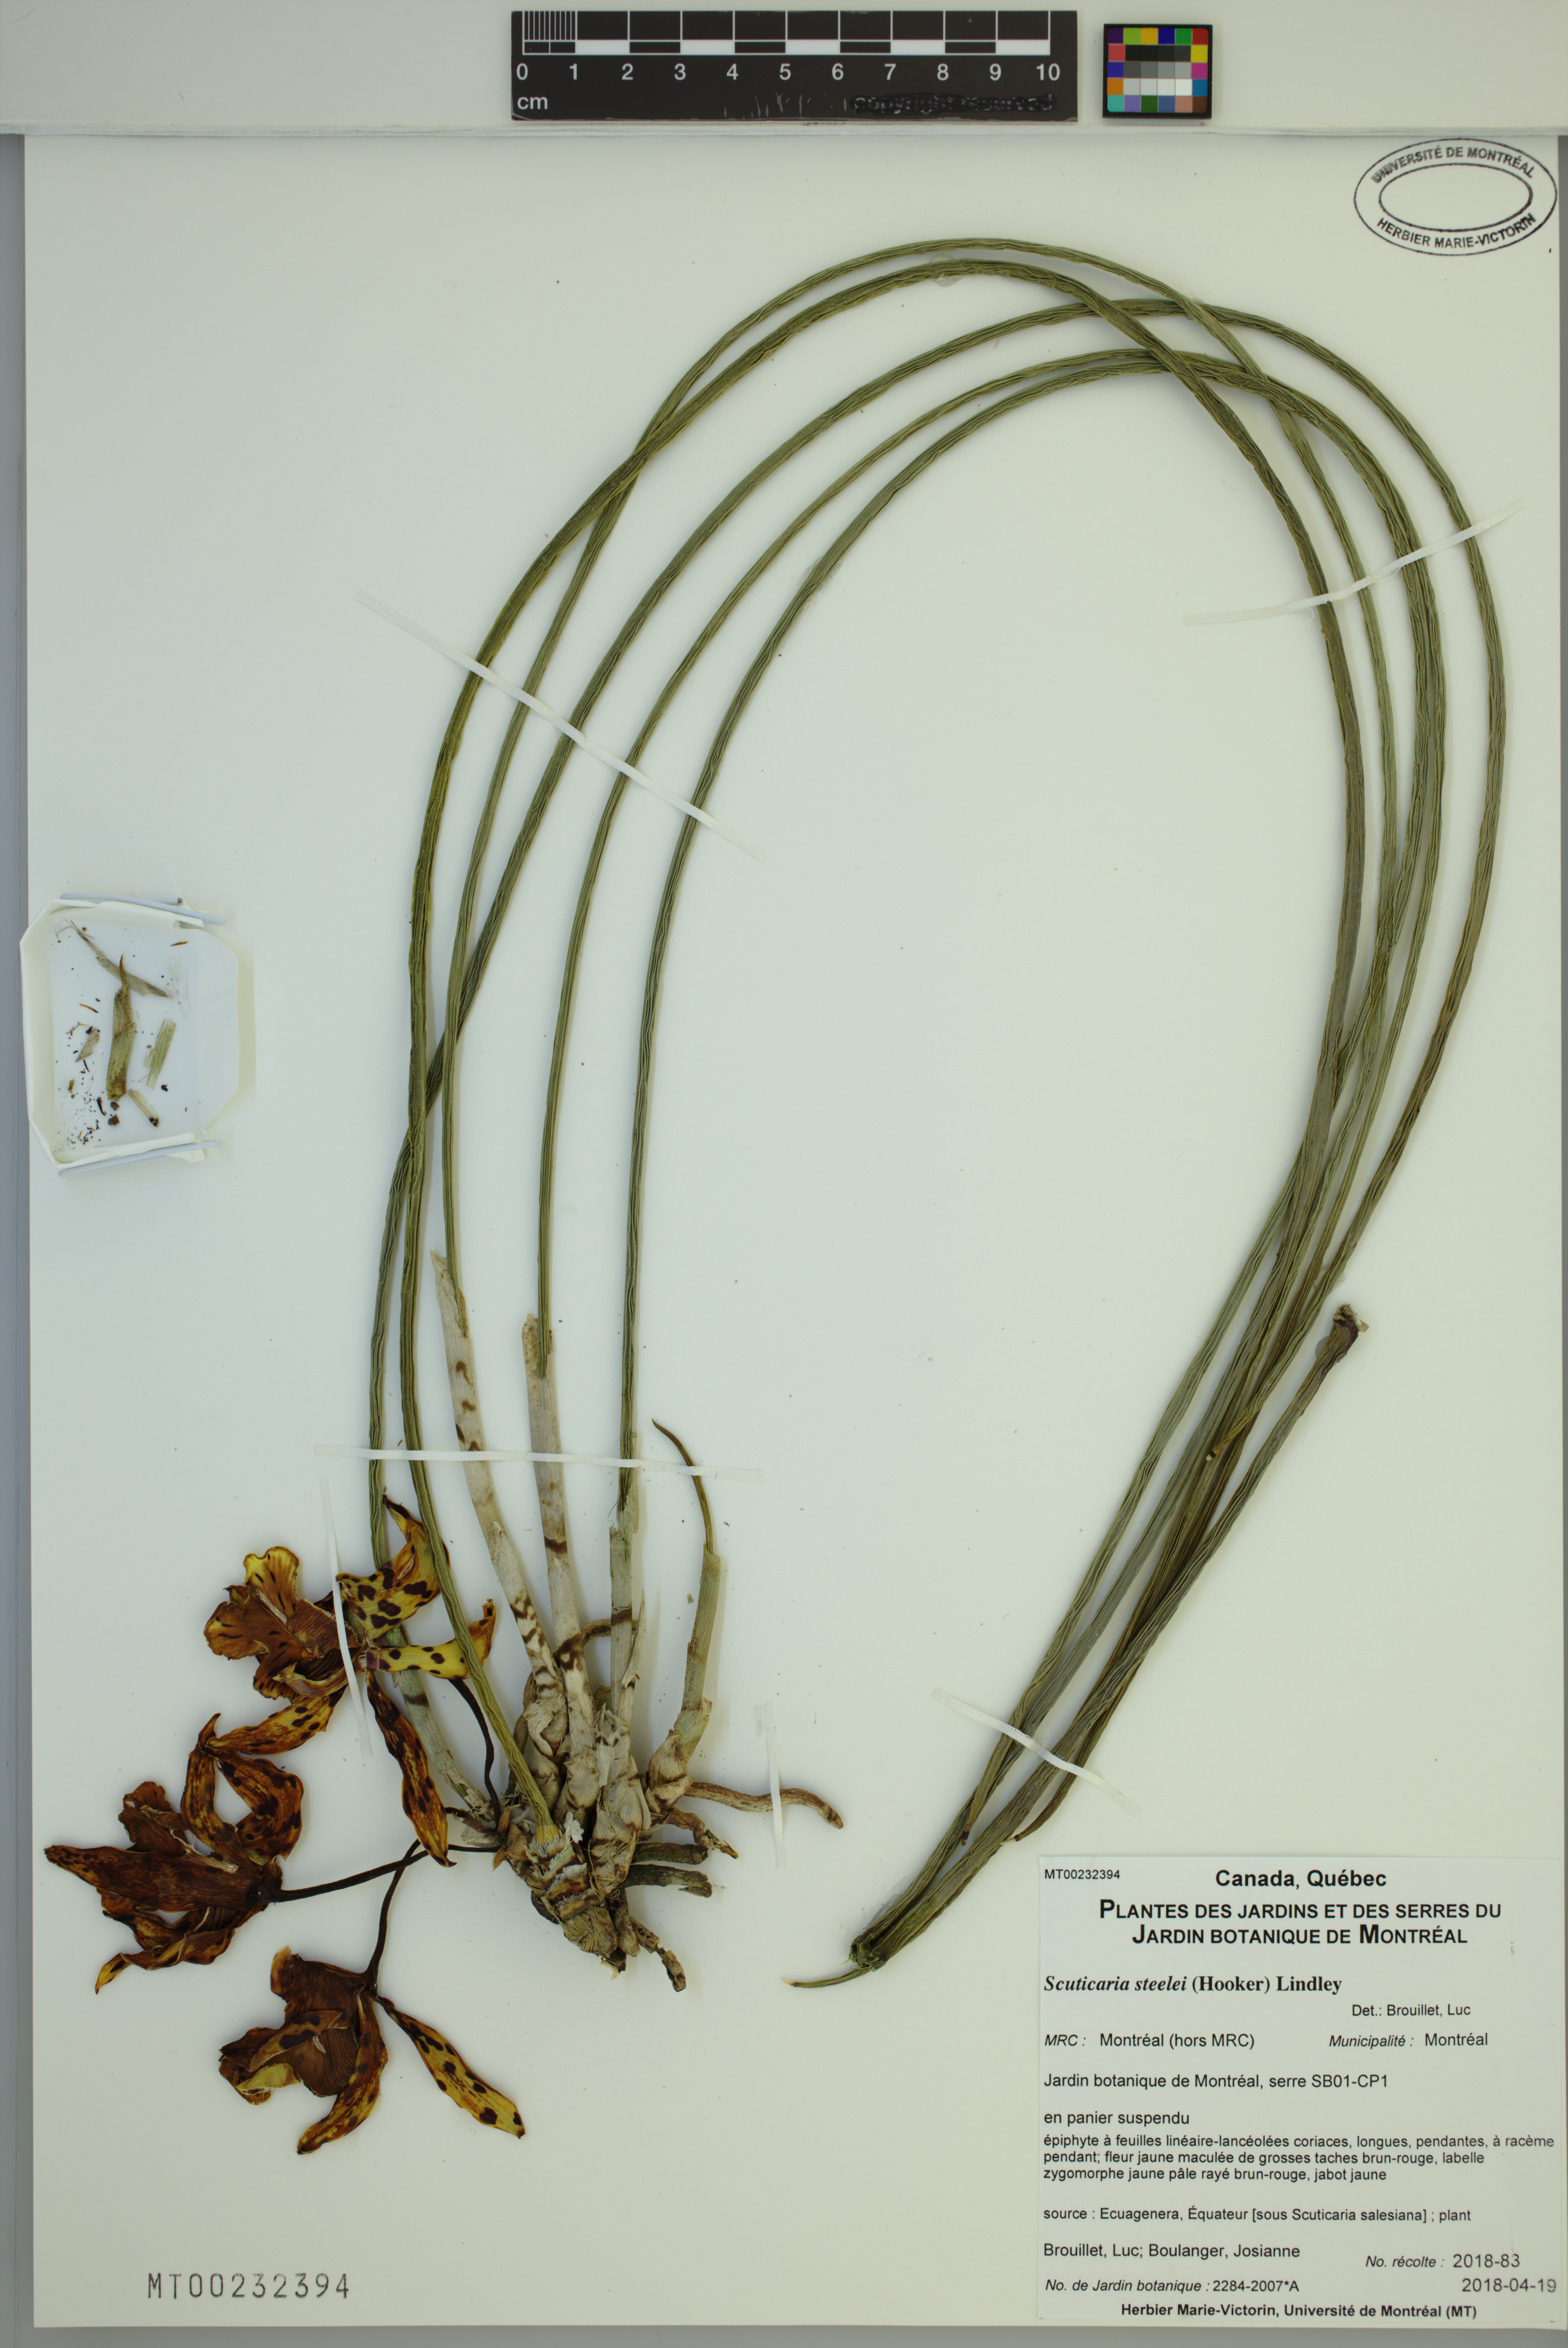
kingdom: Plantae
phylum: Tracheophyta
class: Liliopsida
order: Asparagales
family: Orchidaceae
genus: Scuticaria
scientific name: Scuticaria steelei
